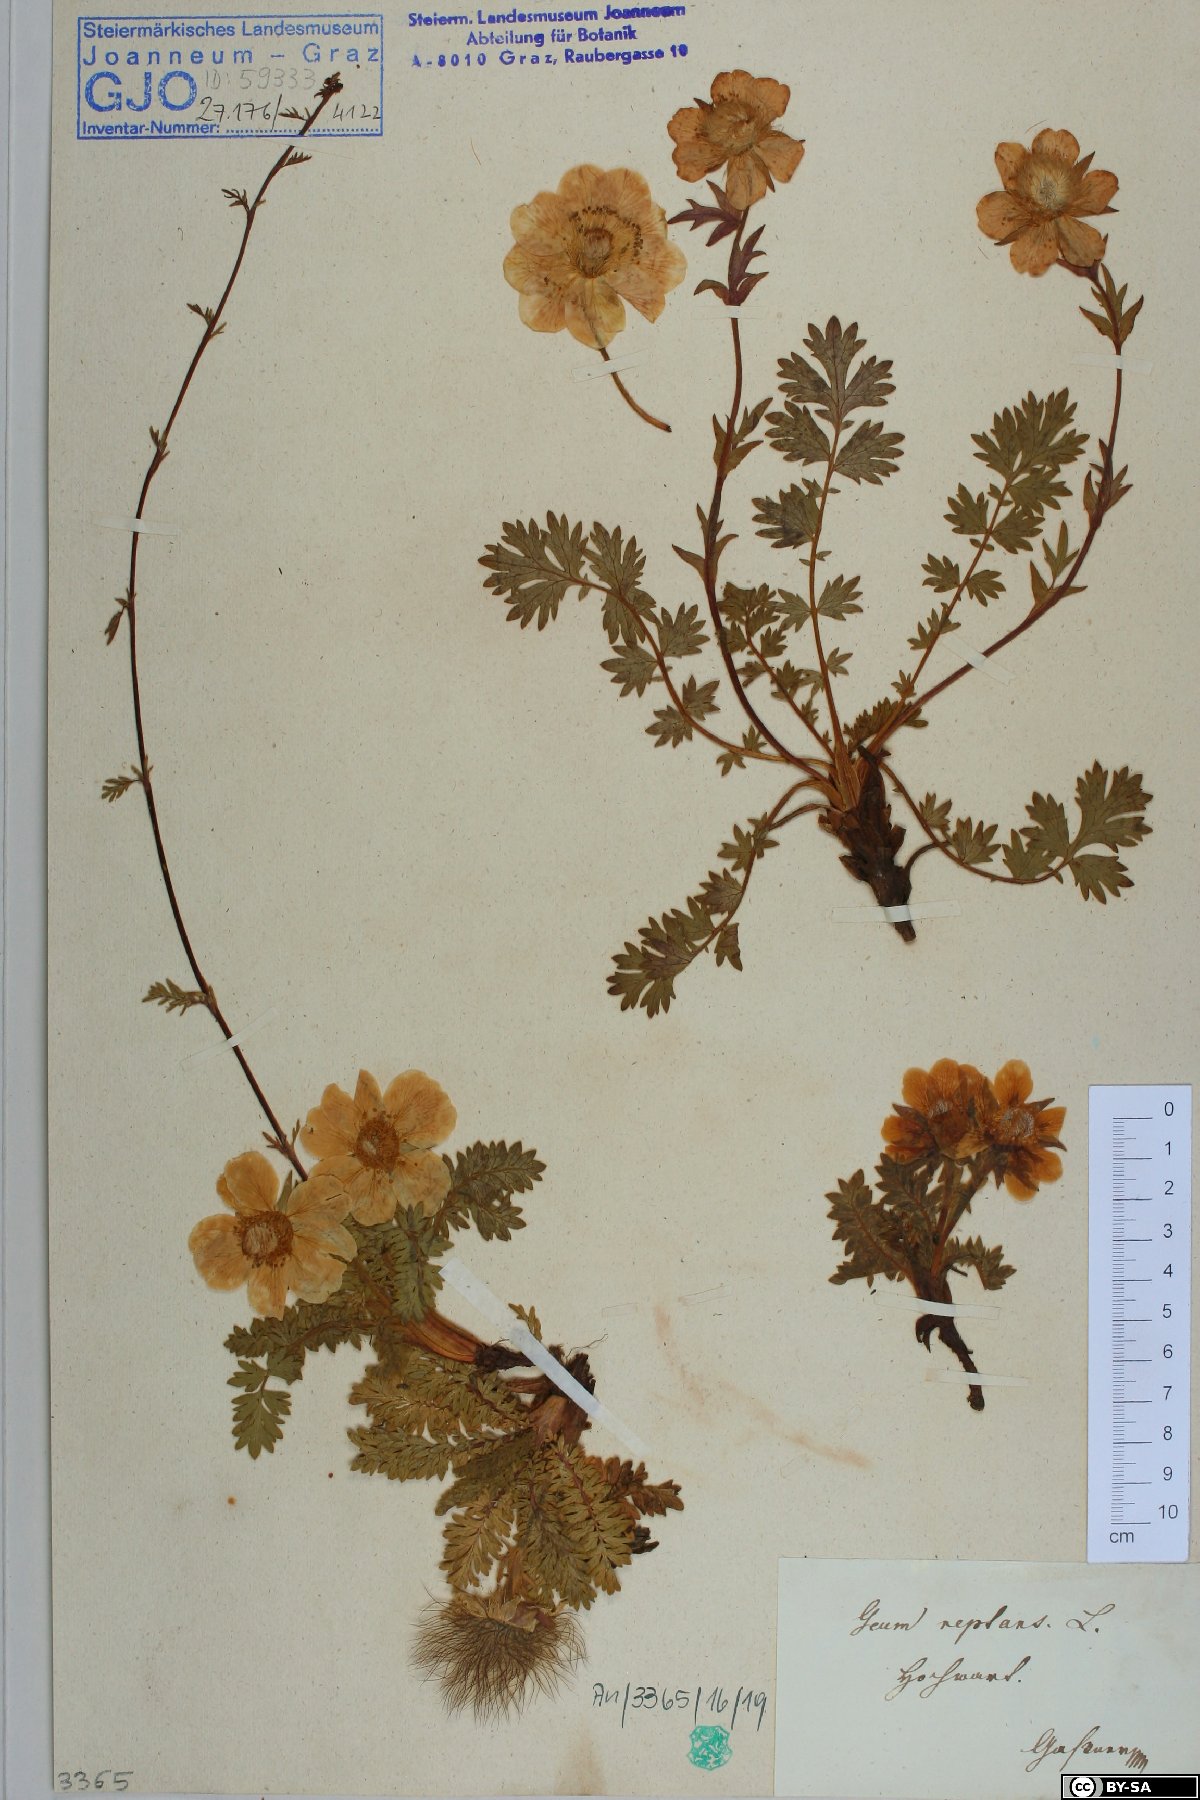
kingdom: Plantae
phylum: Tracheophyta
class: Magnoliopsida
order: Rosales
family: Rosaceae
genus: Geum
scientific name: Geum reptans
